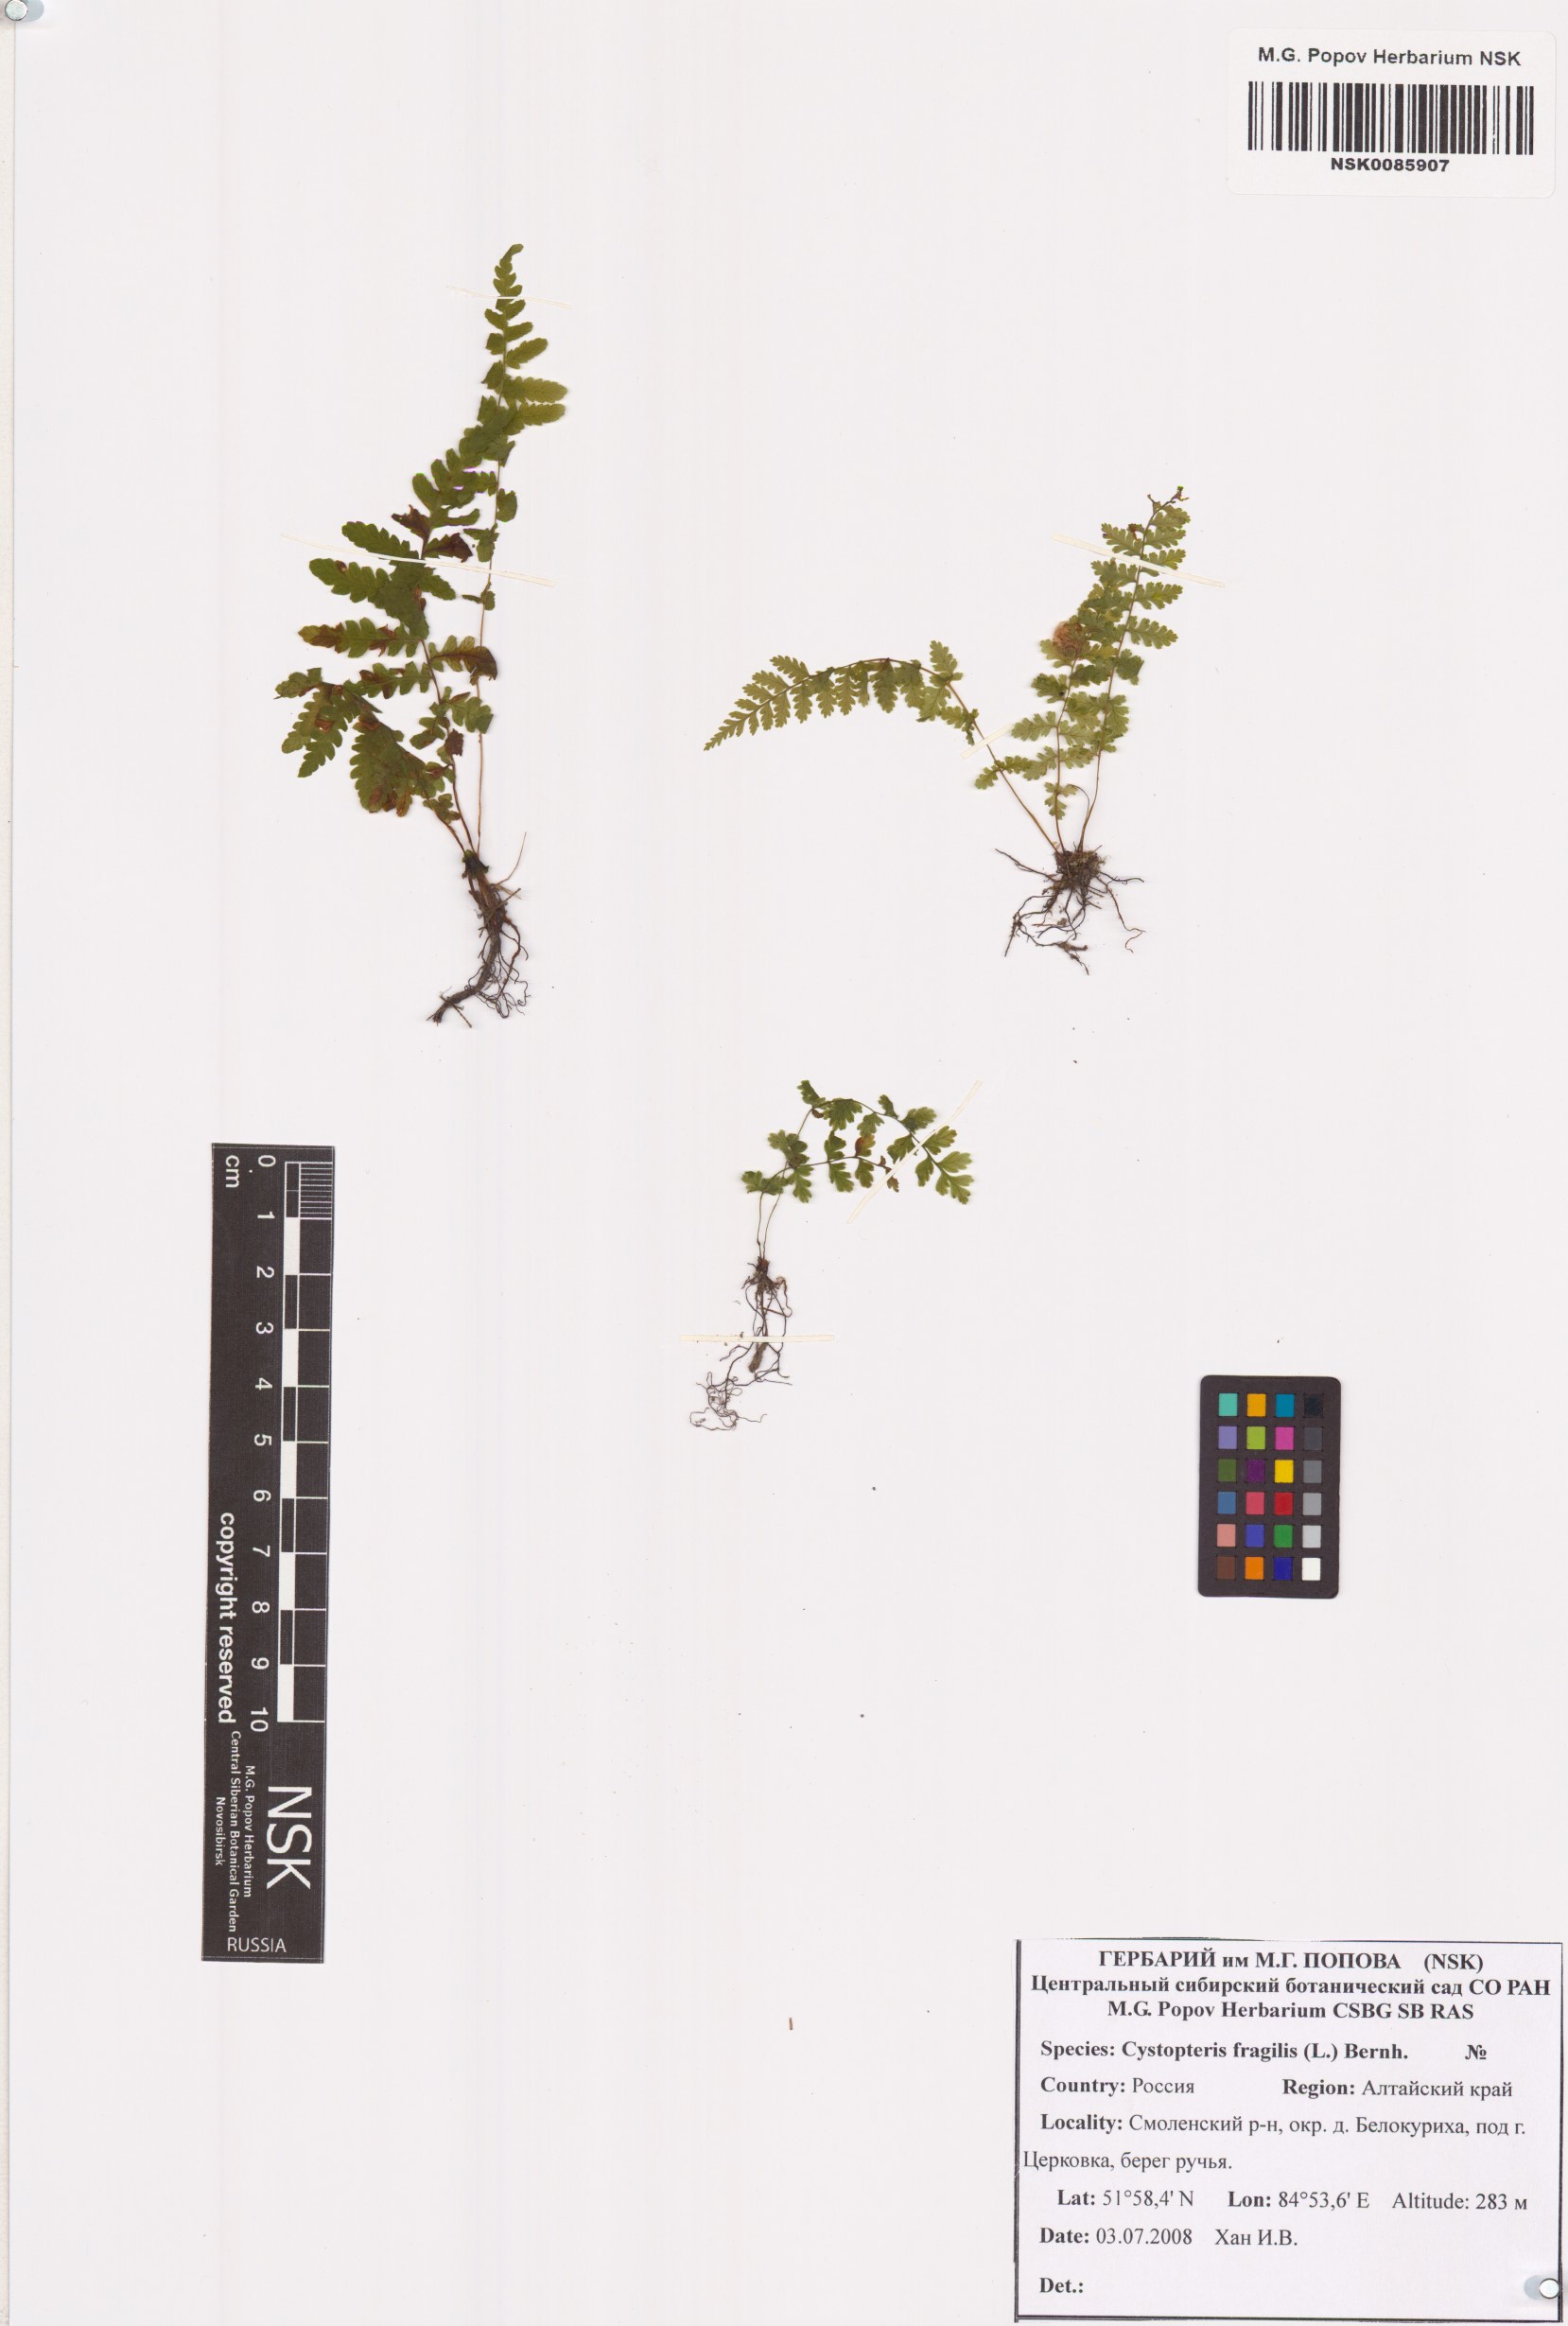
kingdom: Plantae
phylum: Tracheophyta
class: Polypodiopsida
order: Polypodiales
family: Cystopteridaceae
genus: Cystopteris
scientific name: Cystopteris fragilis
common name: Brittle bladder fern
